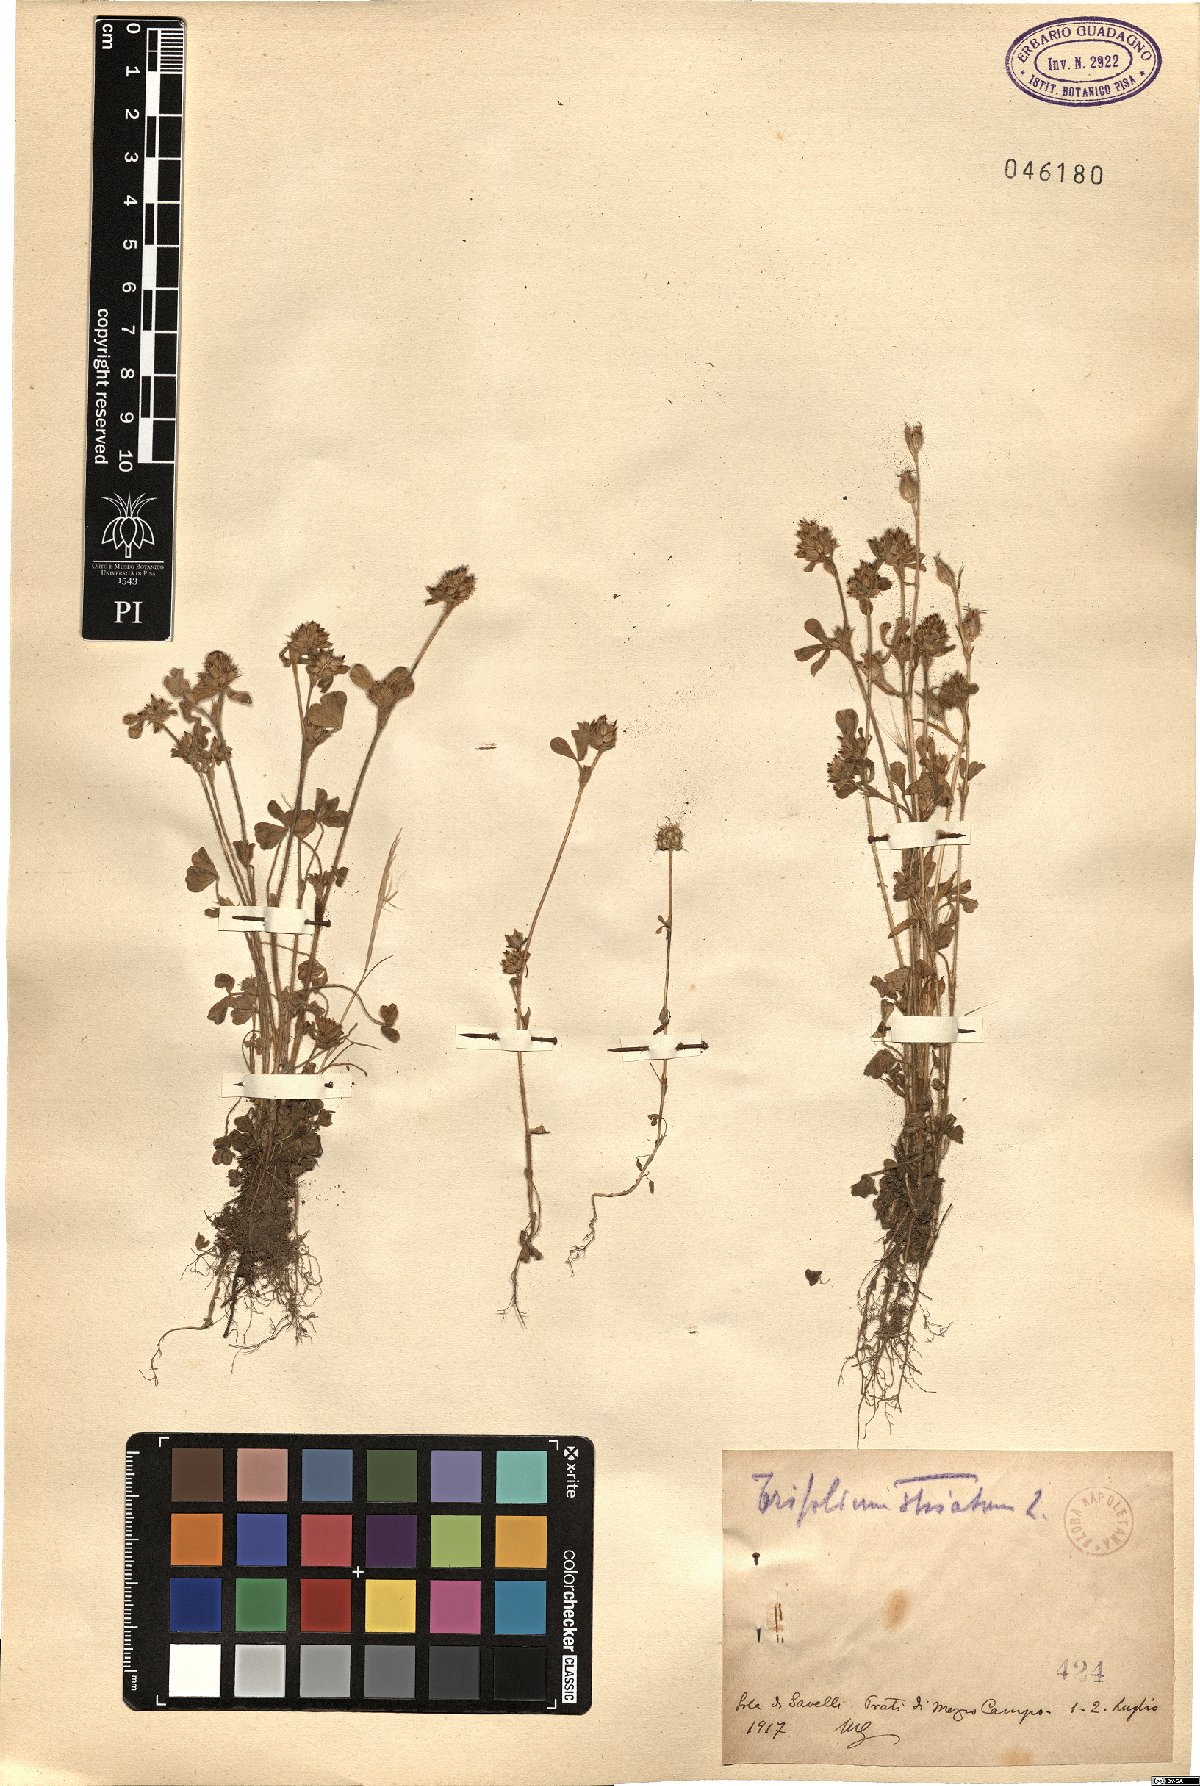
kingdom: Plantae
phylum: Tracheophyta
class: Magnoliopsida
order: Fabales
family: Fabaceae
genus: Trifolium
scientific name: Trifolium striatum
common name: Knotted clover
